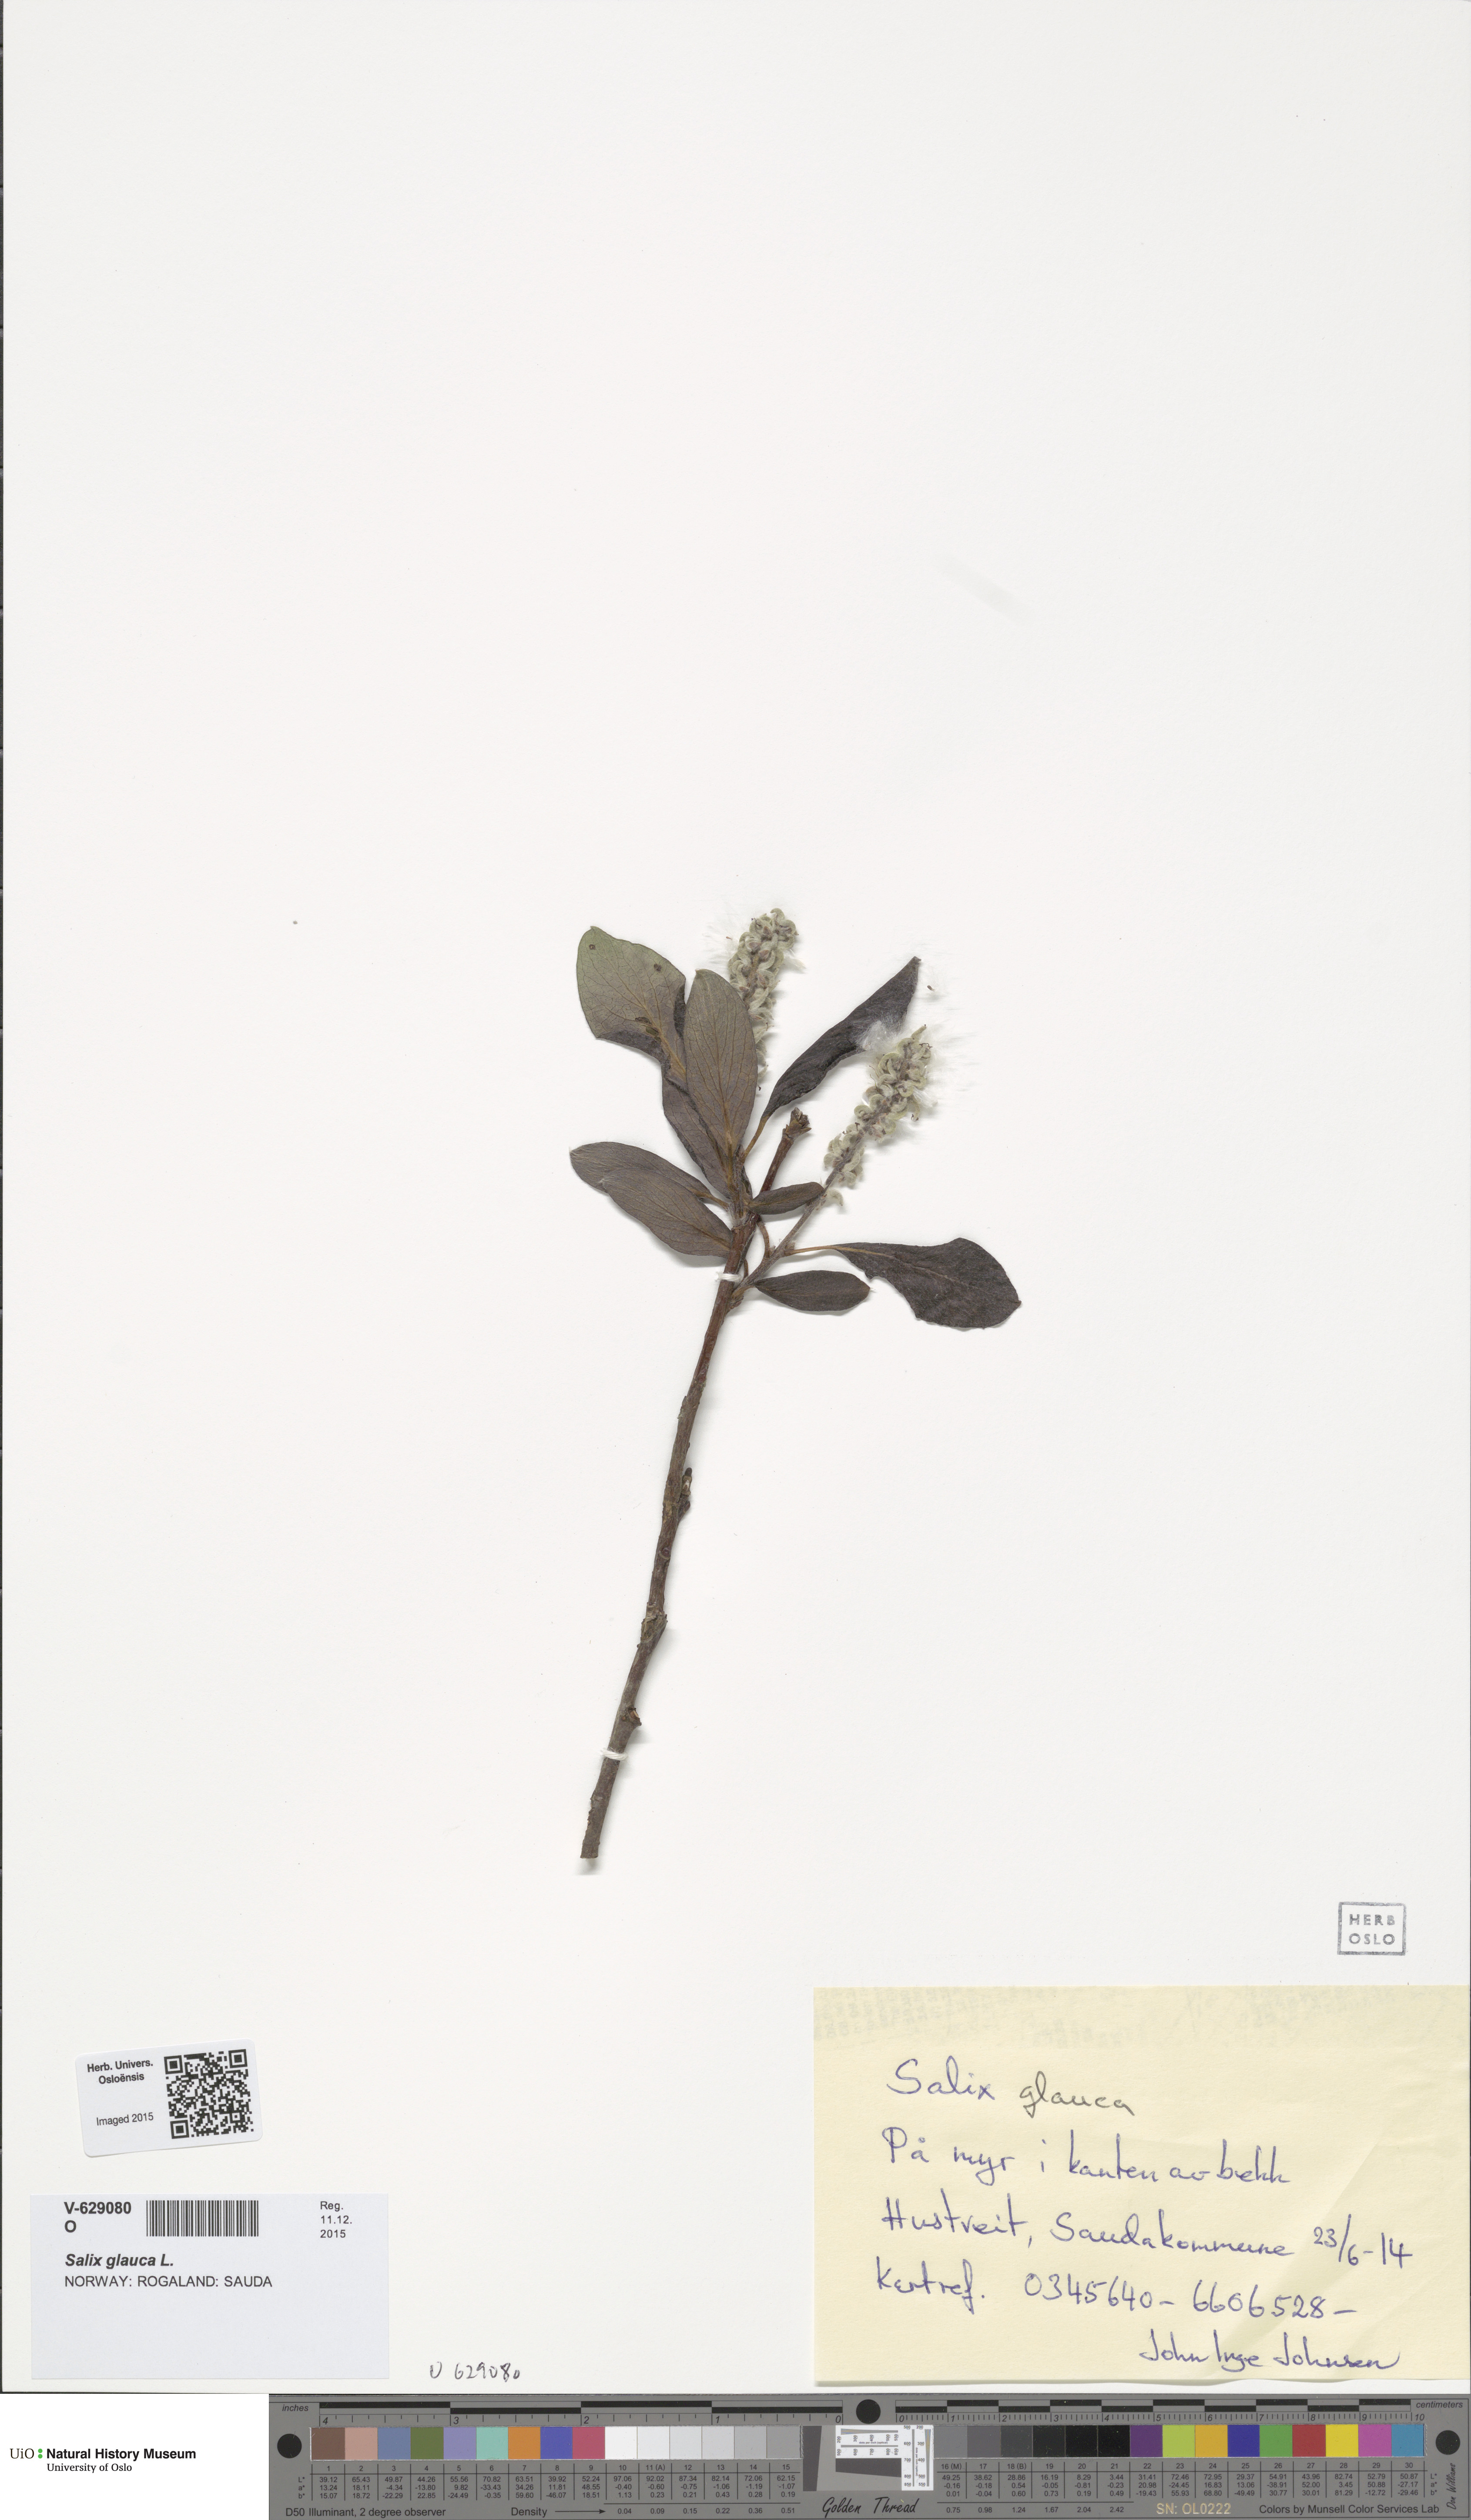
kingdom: Plantae
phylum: Tracheophyta
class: Magnoliopsida
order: Malpighiales
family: Salicaceae
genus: Salix
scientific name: Salix glauca
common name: Glaucous willow
